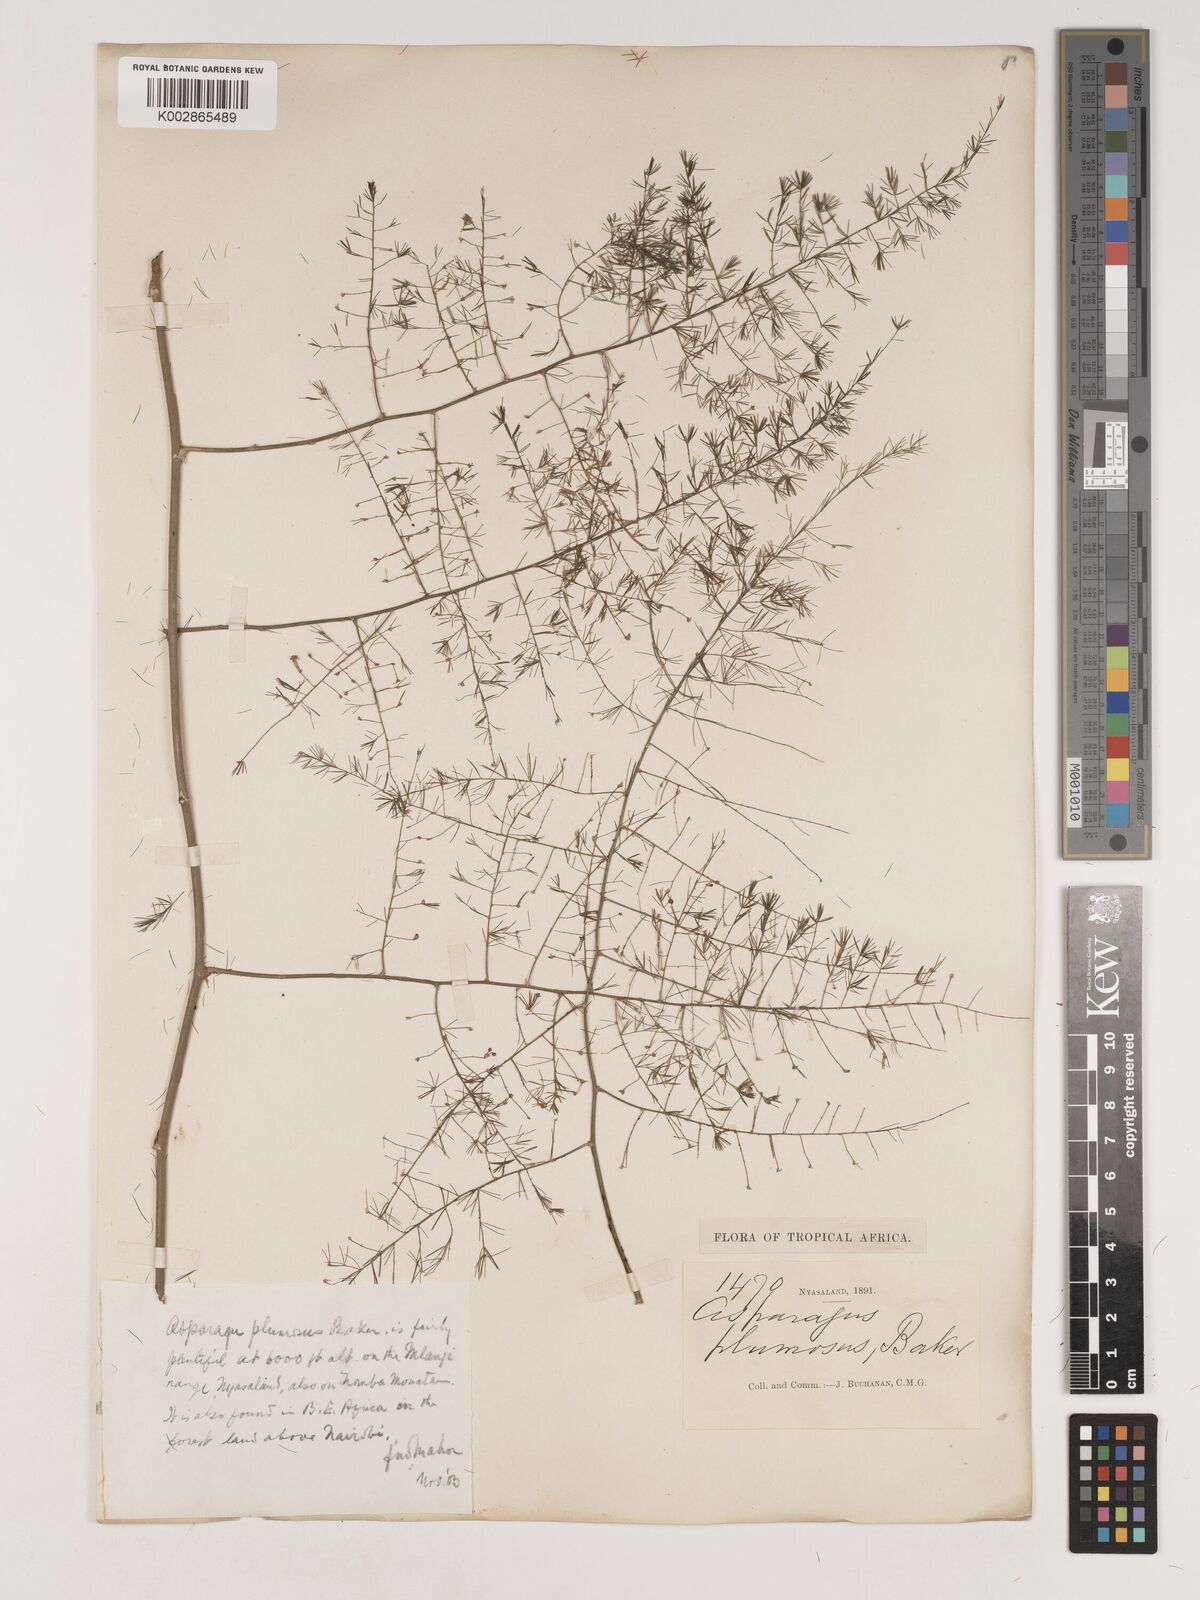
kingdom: Plantae
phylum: Tracheophyta
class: Liliopsida
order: Asparagales
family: Asparagaceae
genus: Asparagus
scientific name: Asparagus setaceus
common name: Common asparagus fern
